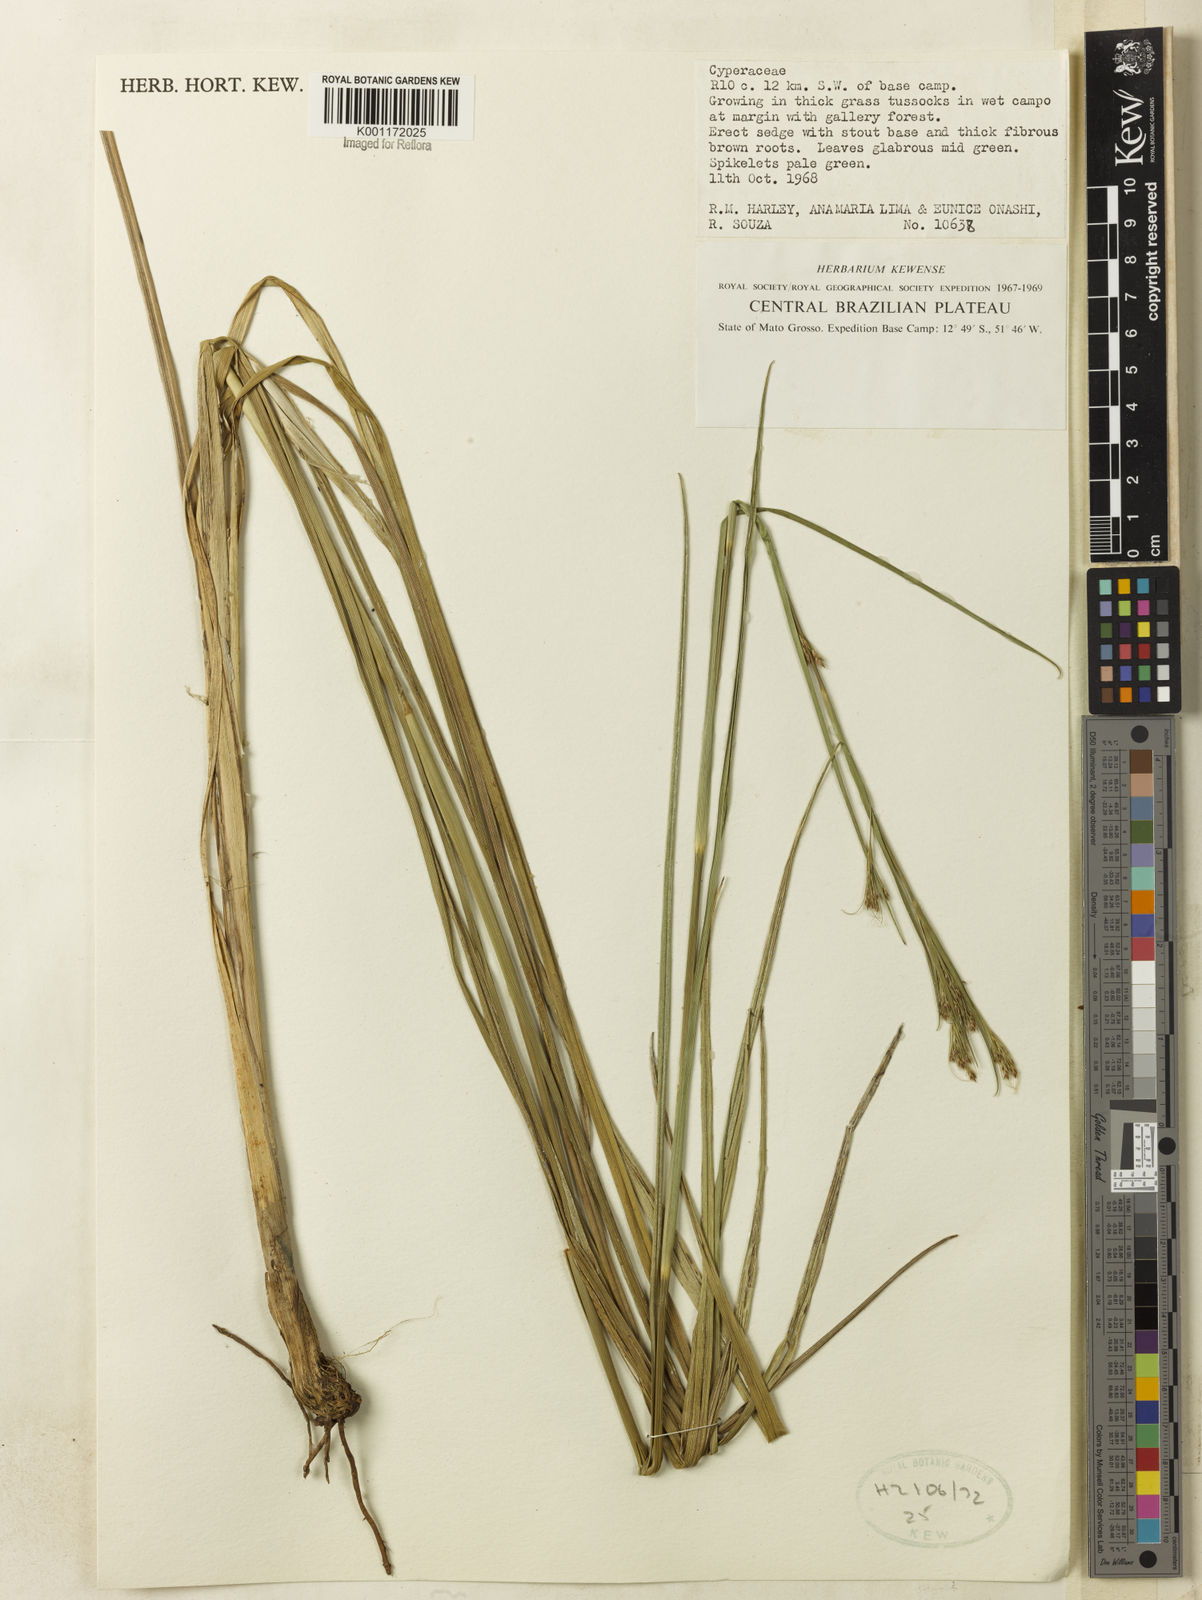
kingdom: Plantae
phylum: Tracheophyta
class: Liliopsida
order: Poales
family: Cyperaceae
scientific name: Cyperaceae
